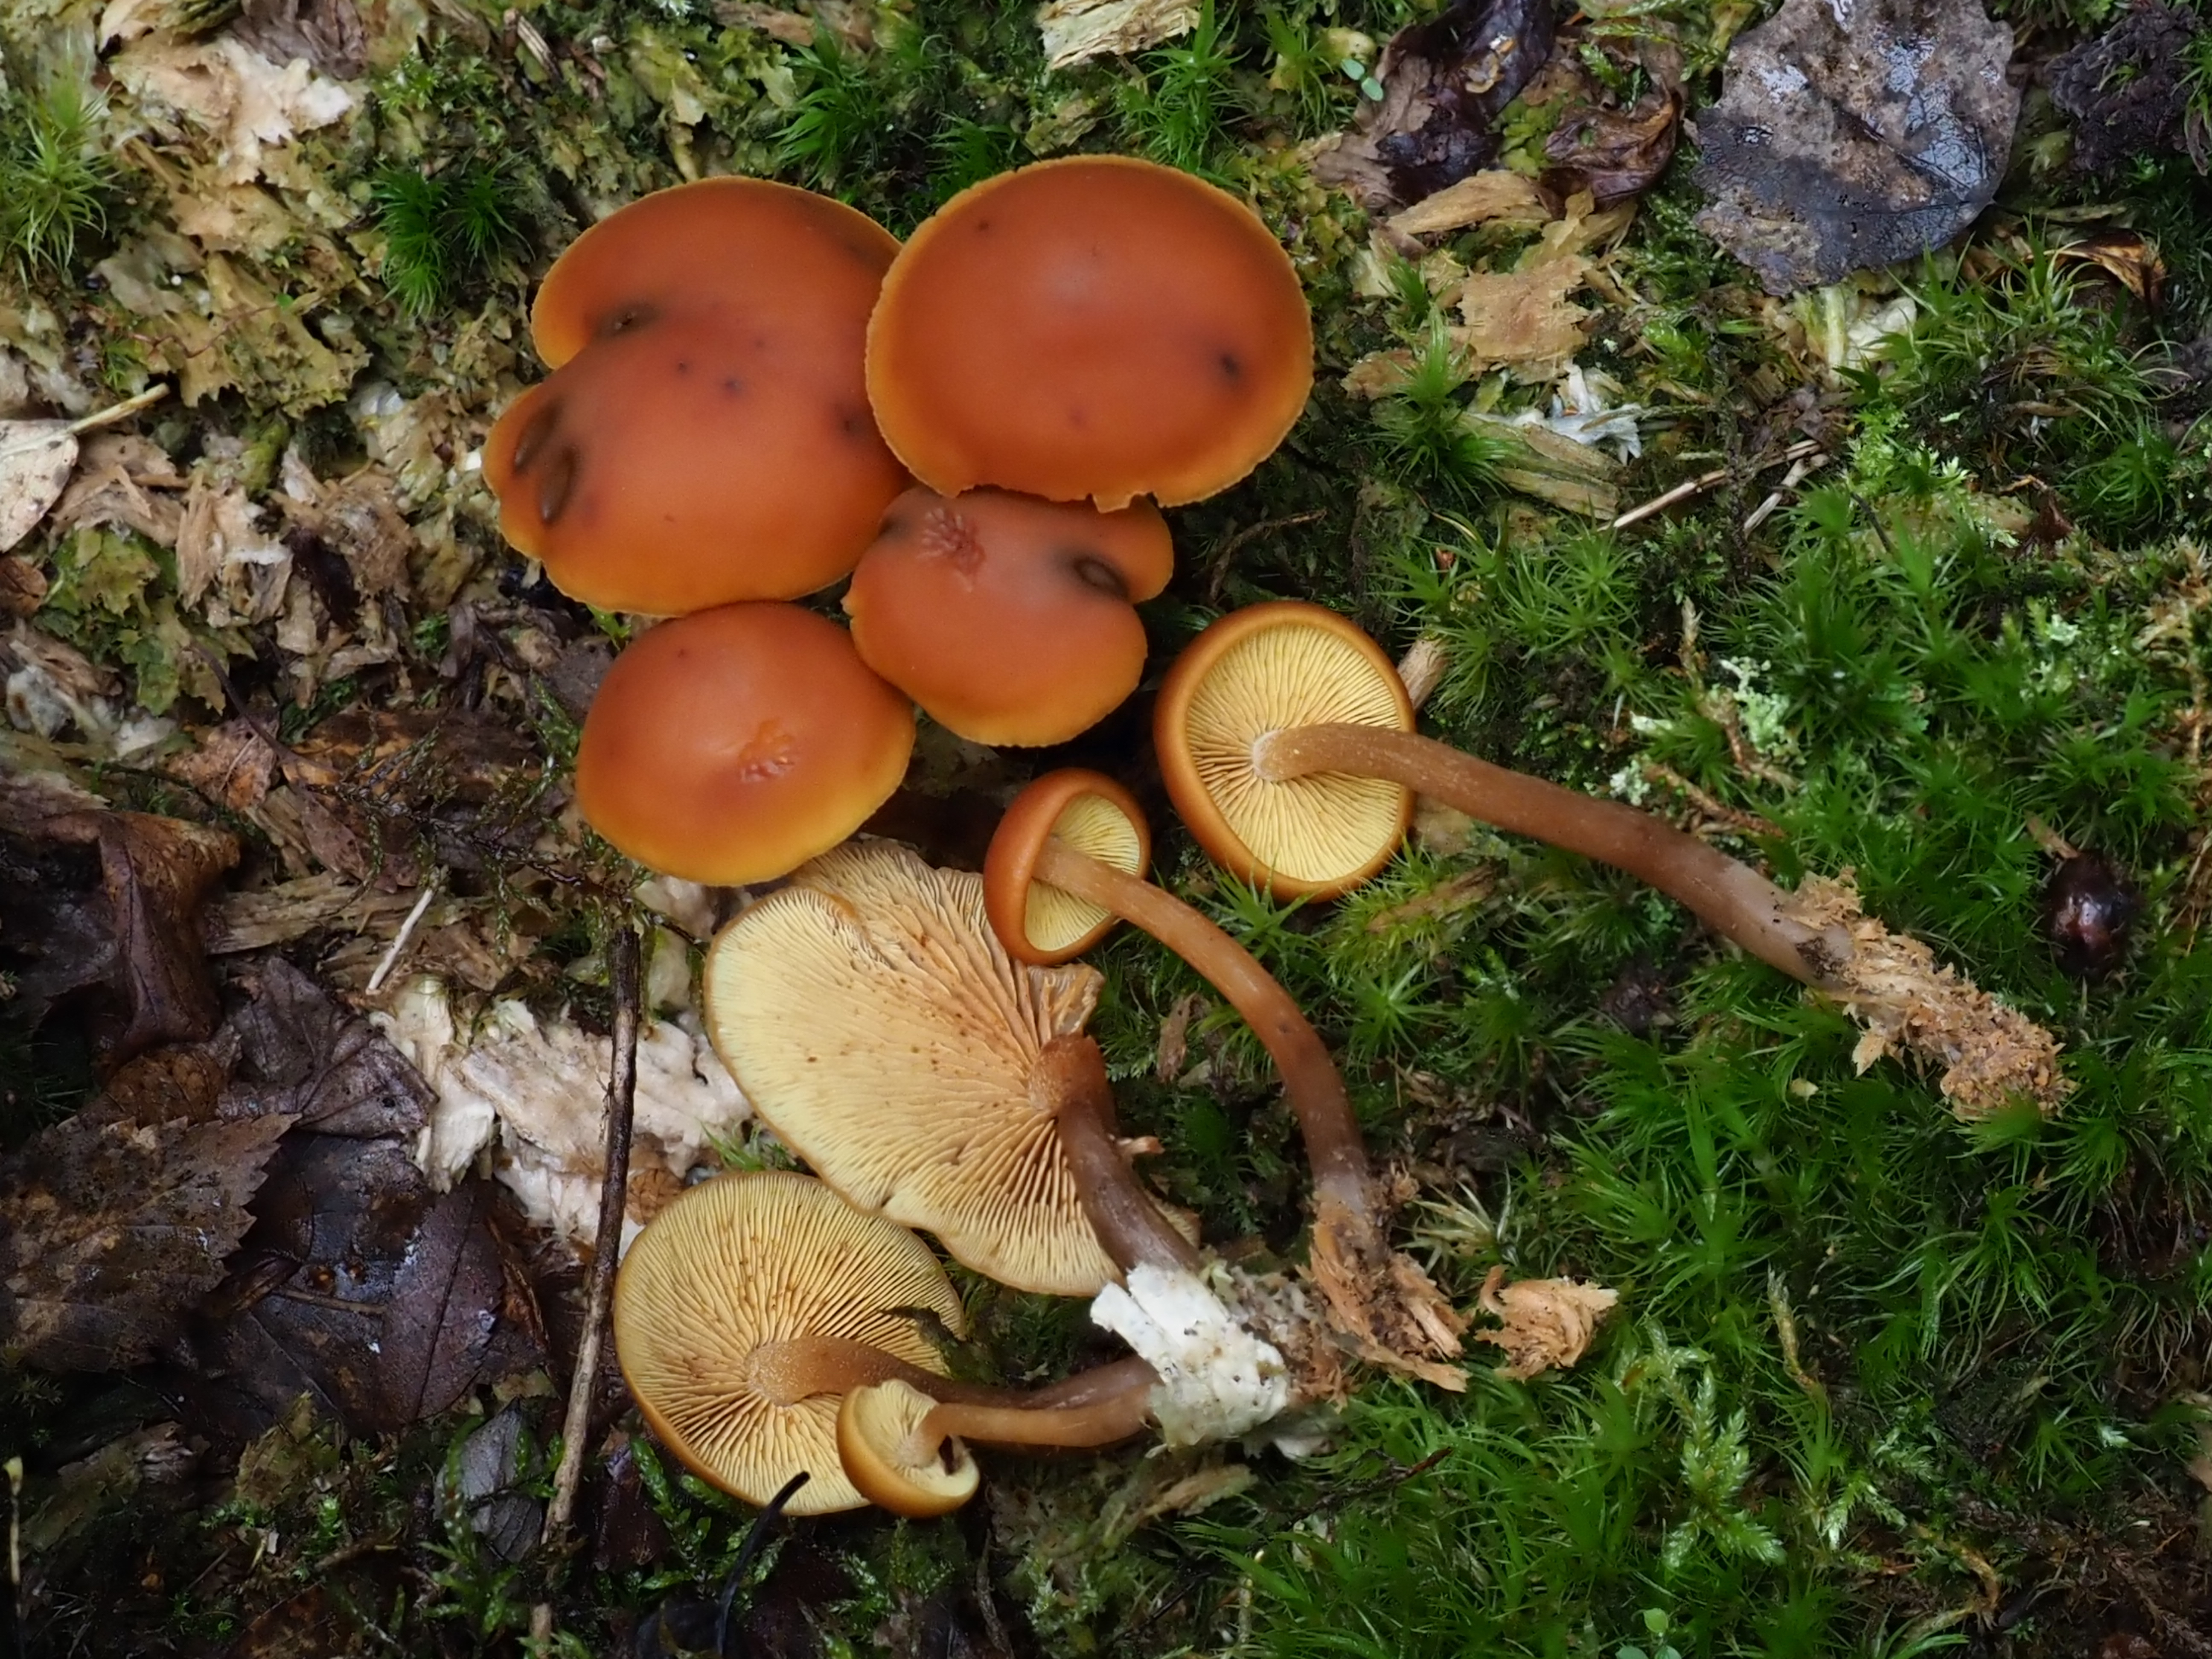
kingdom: Fungi
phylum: Basidiomycota
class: Agaricomycetes
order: Agaricales
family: Hymenogastraceae
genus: Gymnopilus
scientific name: Gymnopilus picreus
